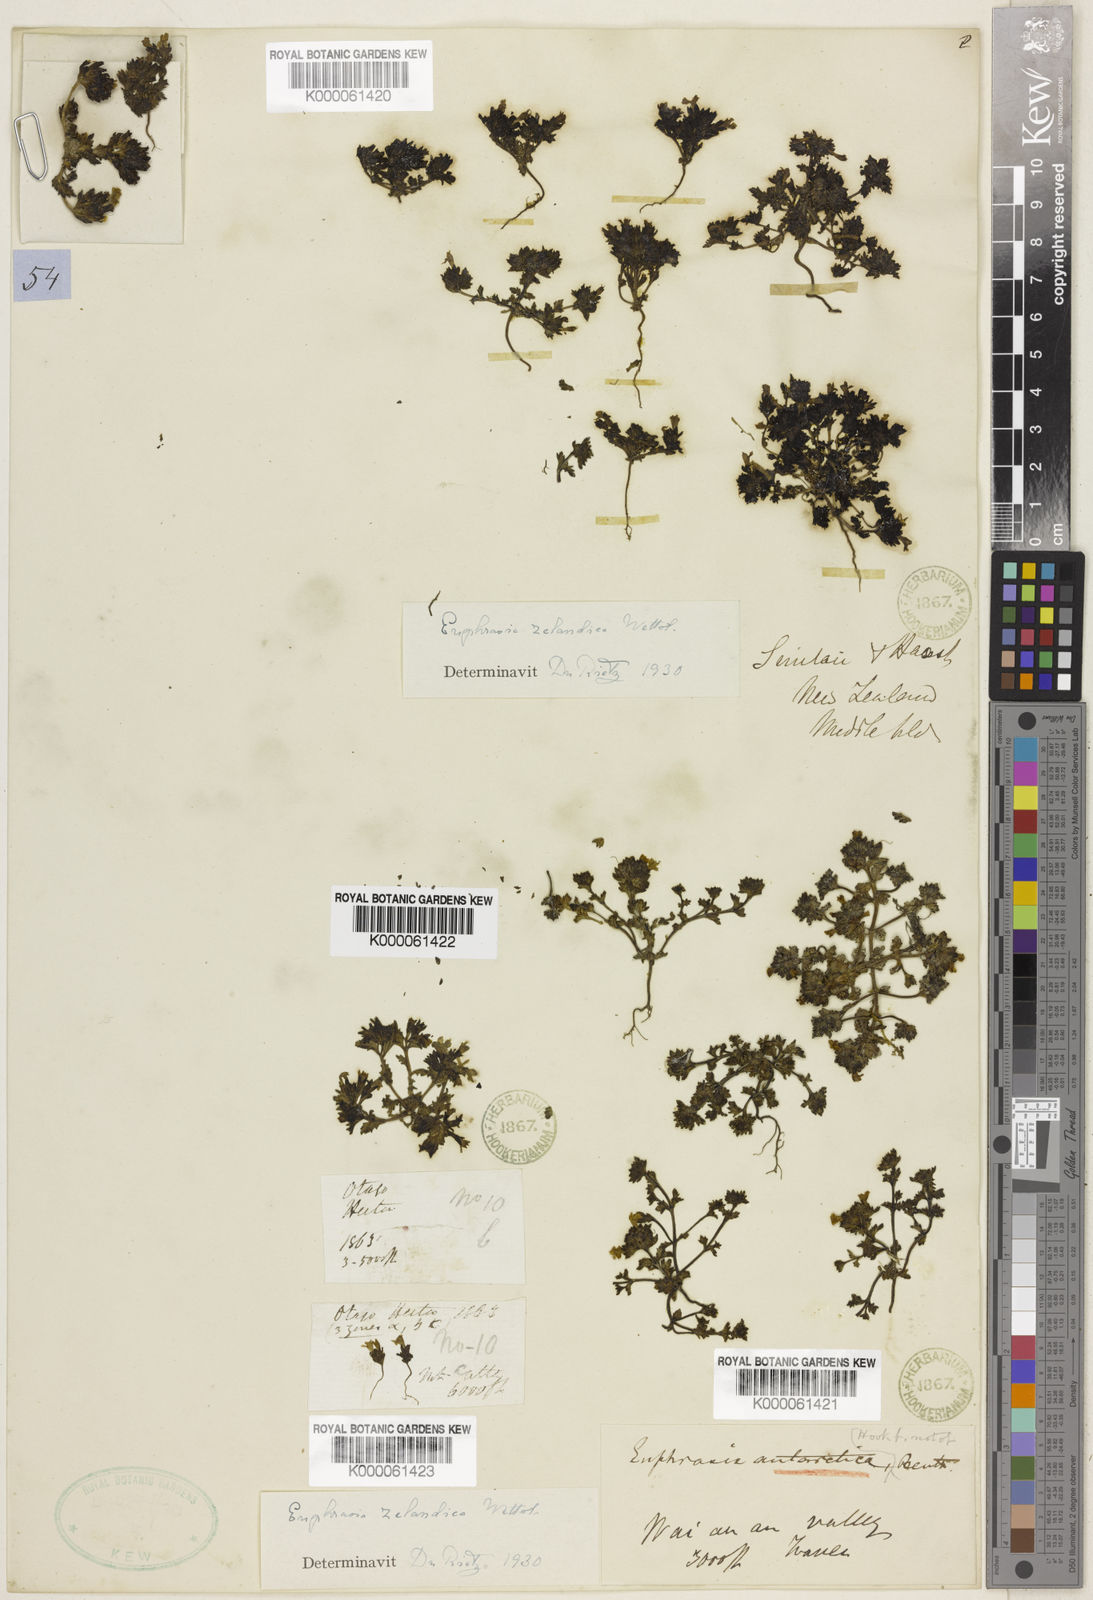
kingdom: Plantae
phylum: Tracheophyta
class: Magnoliopsida
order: Lamiales
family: Orobanchaceae
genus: Euphrasia
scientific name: Euphrasia zelandica
